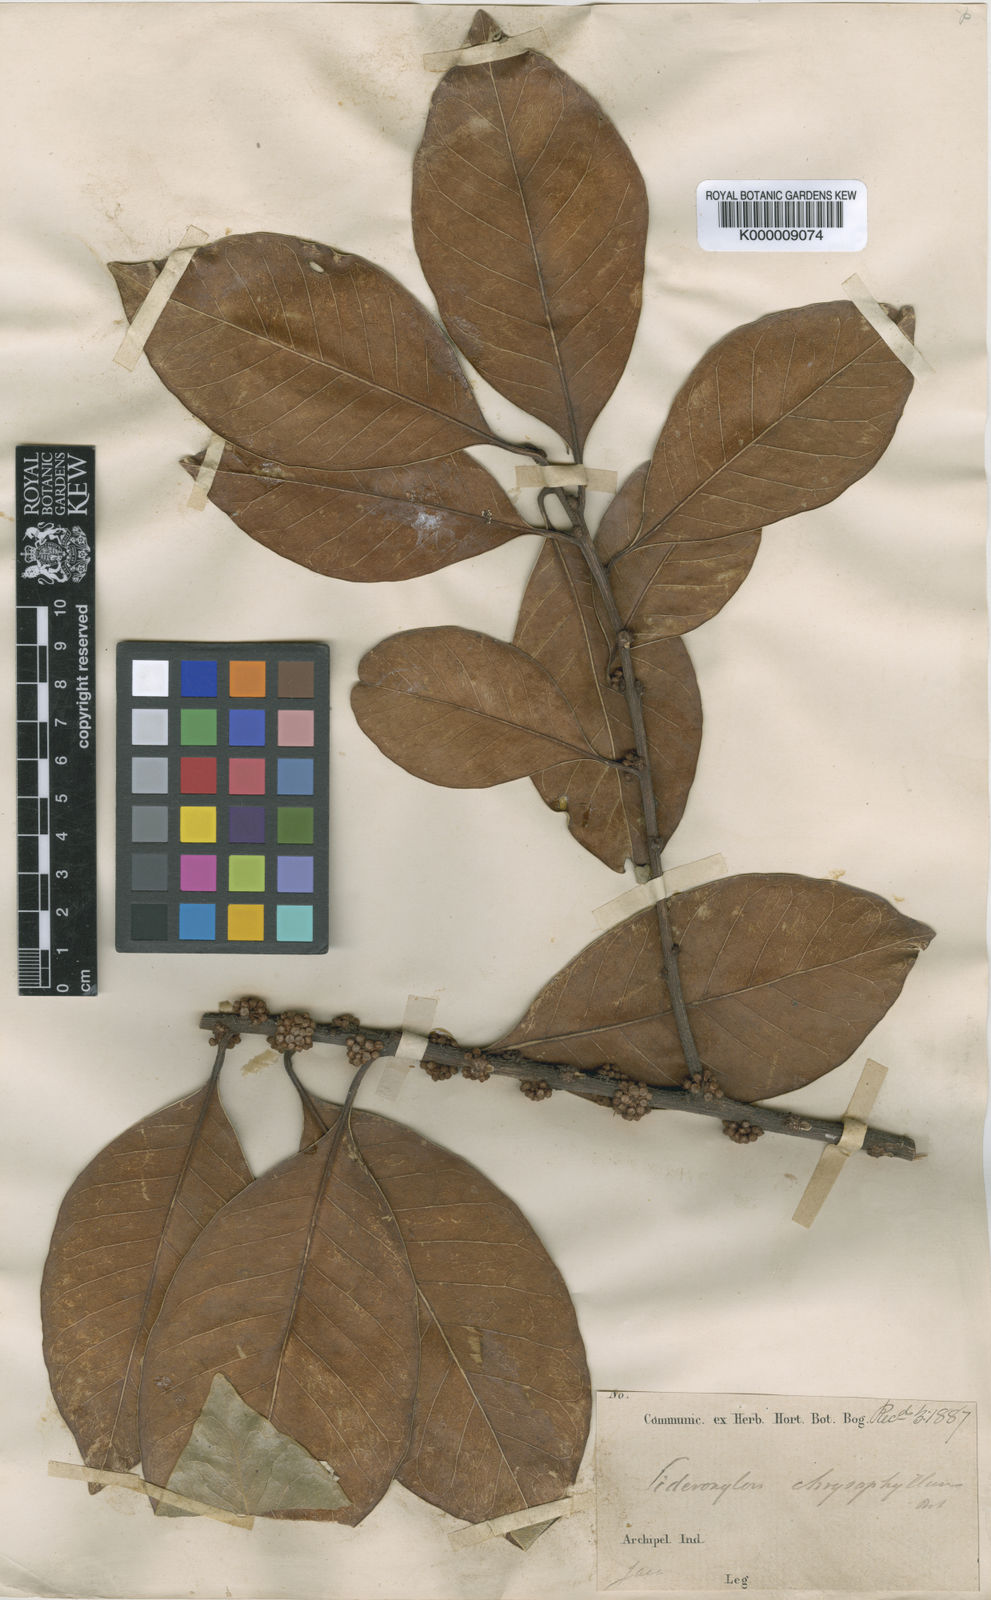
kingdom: Plantae
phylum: Tracheophyta
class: Magnoliopsida
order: Ericales
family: Sapotaceae
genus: Planchonella
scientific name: Planchonella obovata
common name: Black-ash
